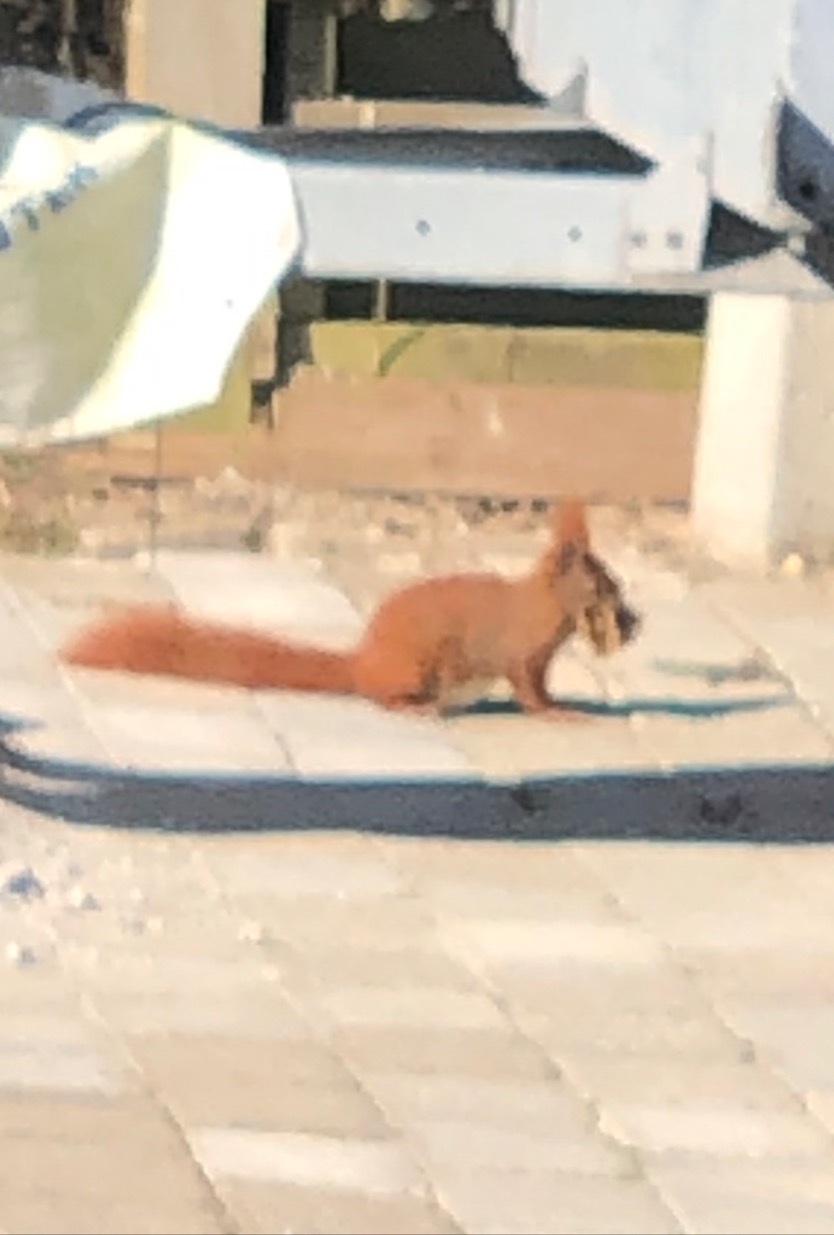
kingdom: Animalia
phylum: Chordata
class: Mammalia
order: Rodentia
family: Sciuridae
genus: Sciurus
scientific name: Sciurus vulgaris
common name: Egern
